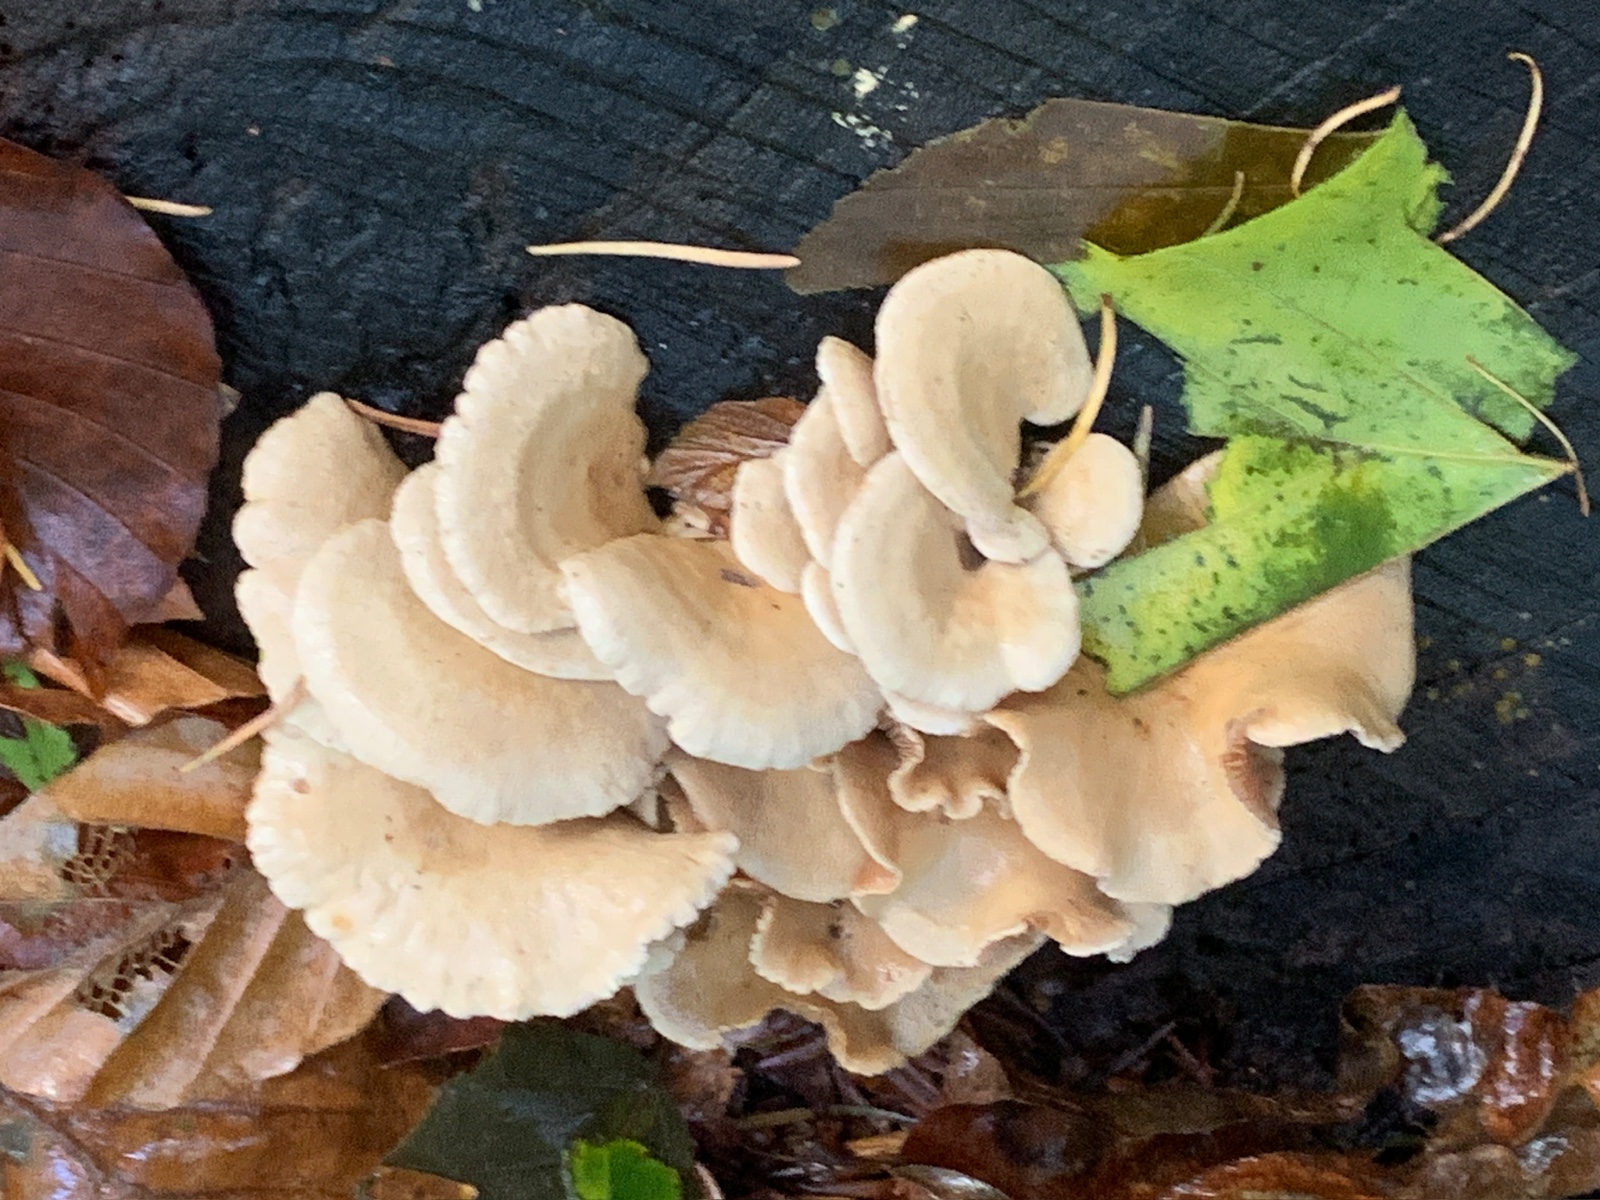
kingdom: Fungi
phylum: Basidiomycota
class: Agaricomycetes
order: Agaricales
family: Mycenaceae
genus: Panellus
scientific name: Panellus stipticus
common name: kliddet epaulethat
